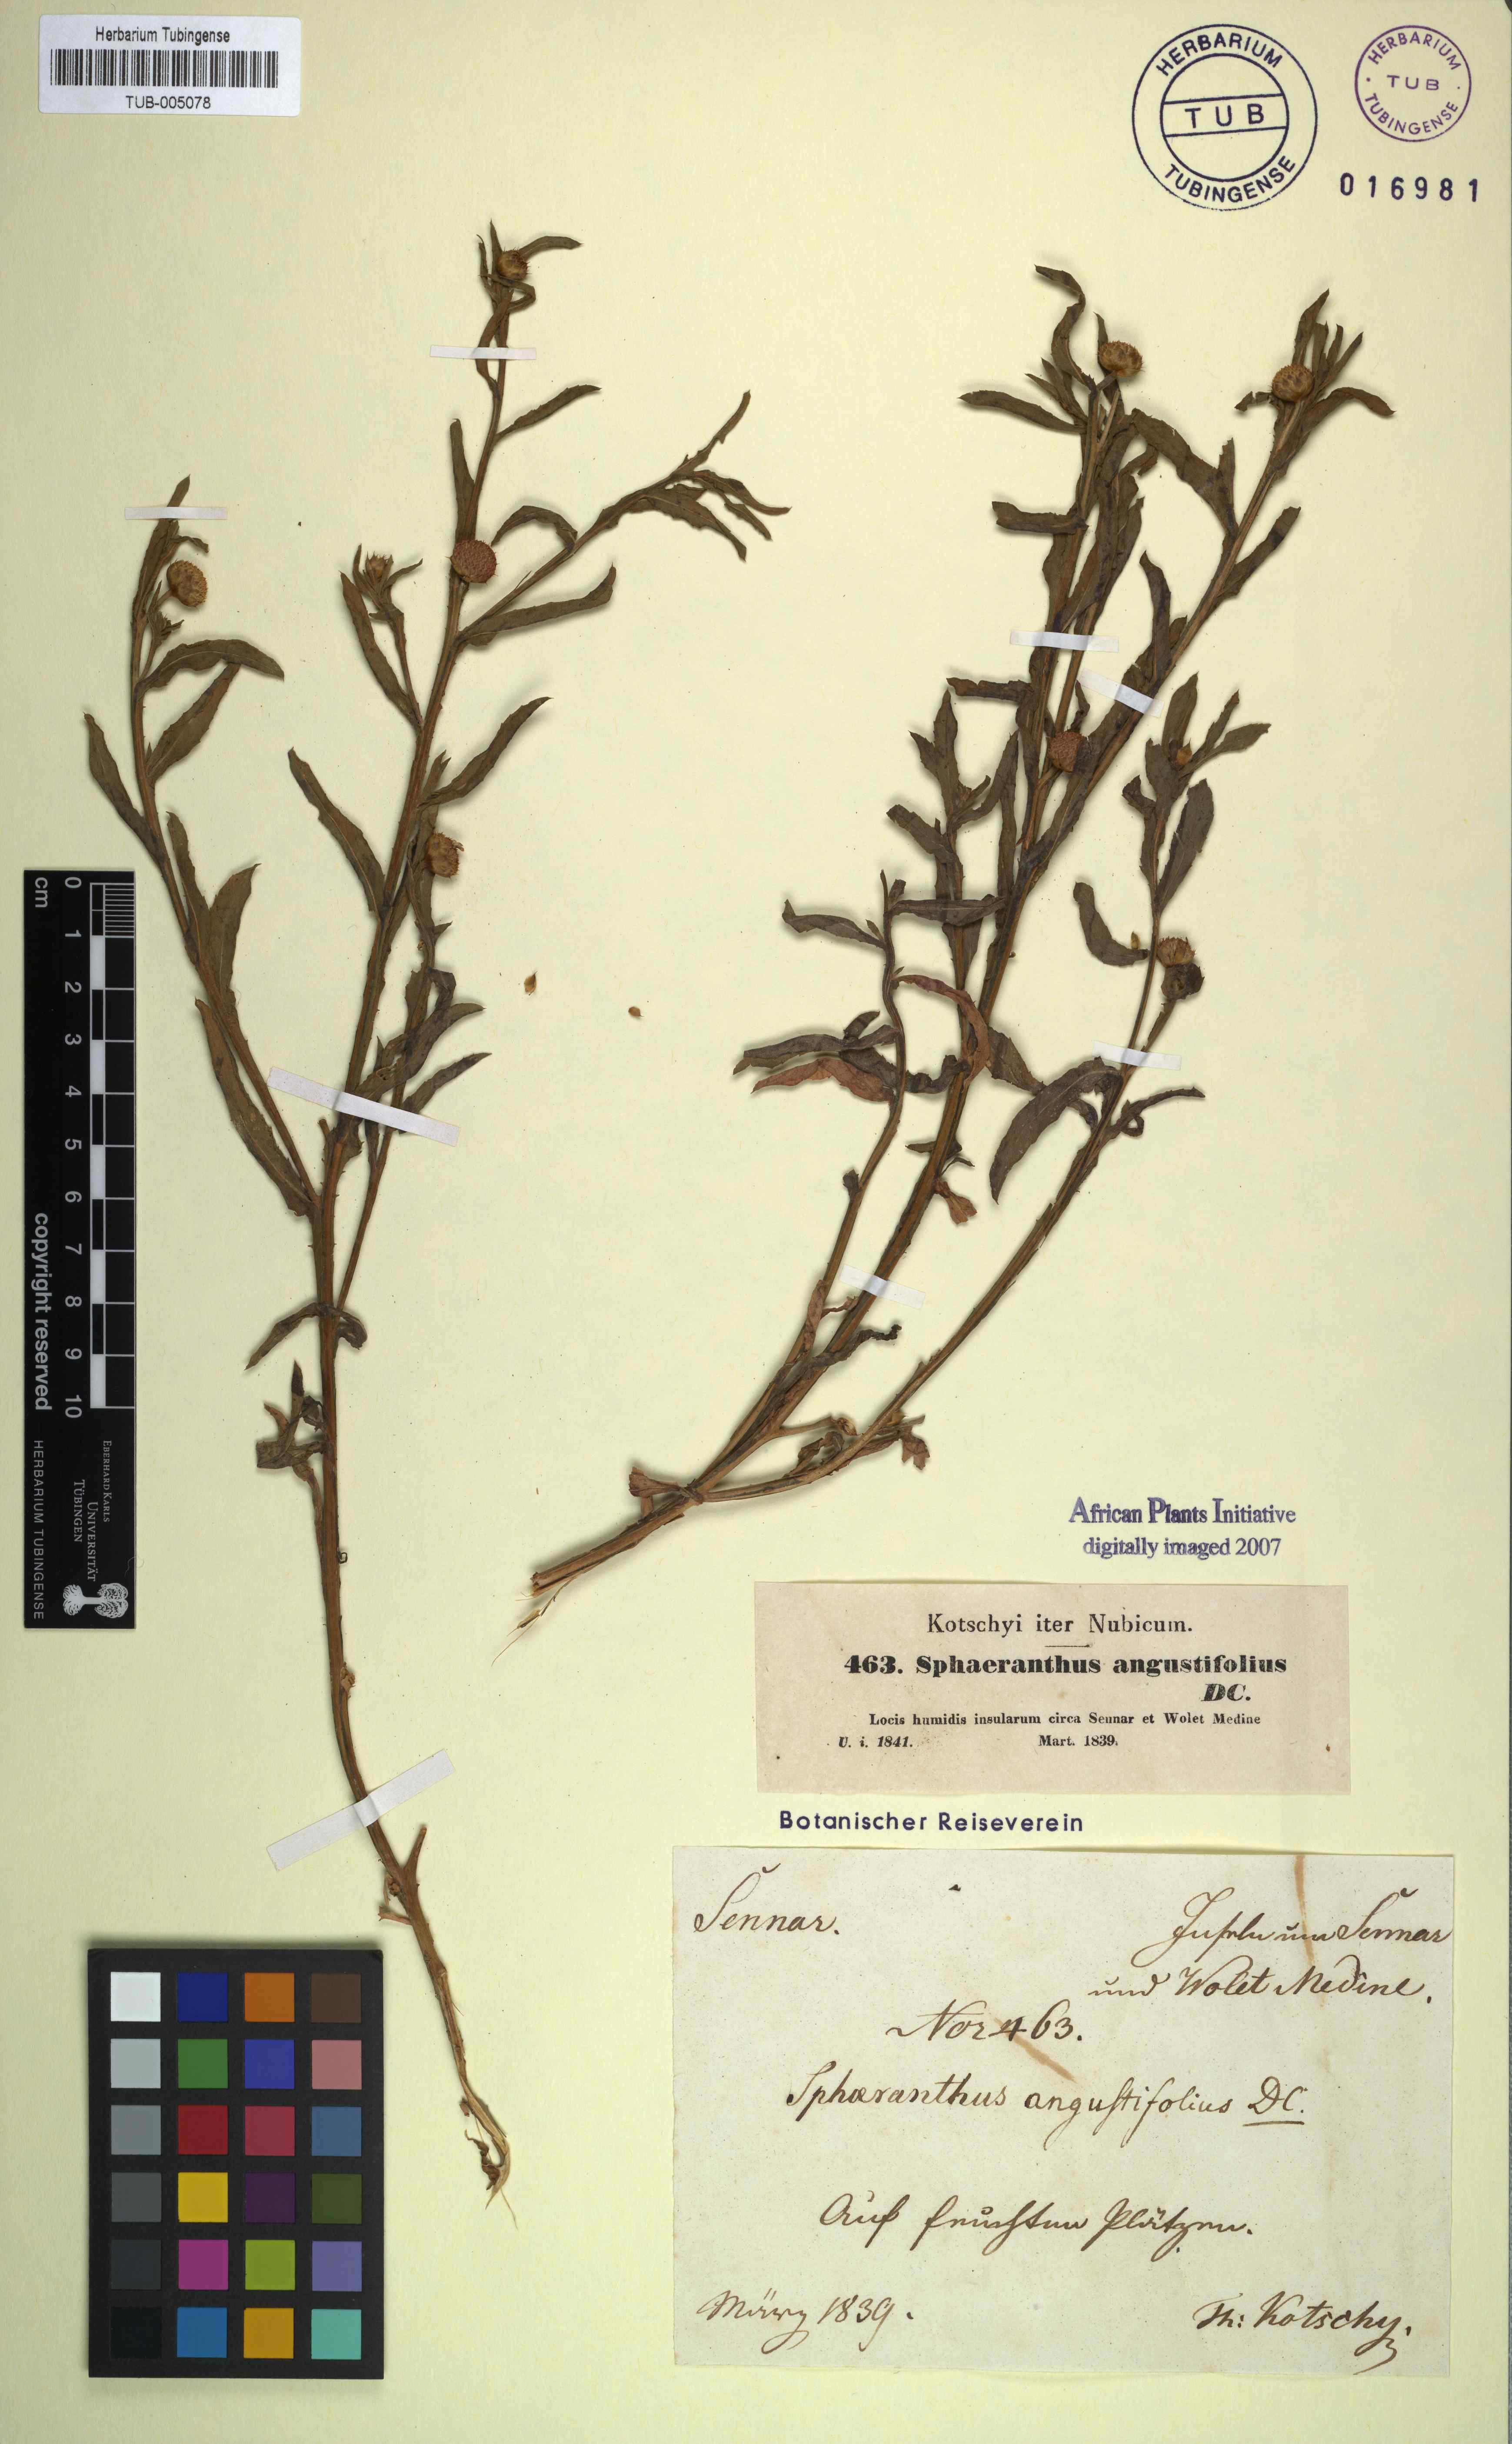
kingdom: Plantae
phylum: Tracheophyta
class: Magnoliopsida
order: Asterales
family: Asteraceae
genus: Sphaeranthus
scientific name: Sphaeranthus angustifolius
